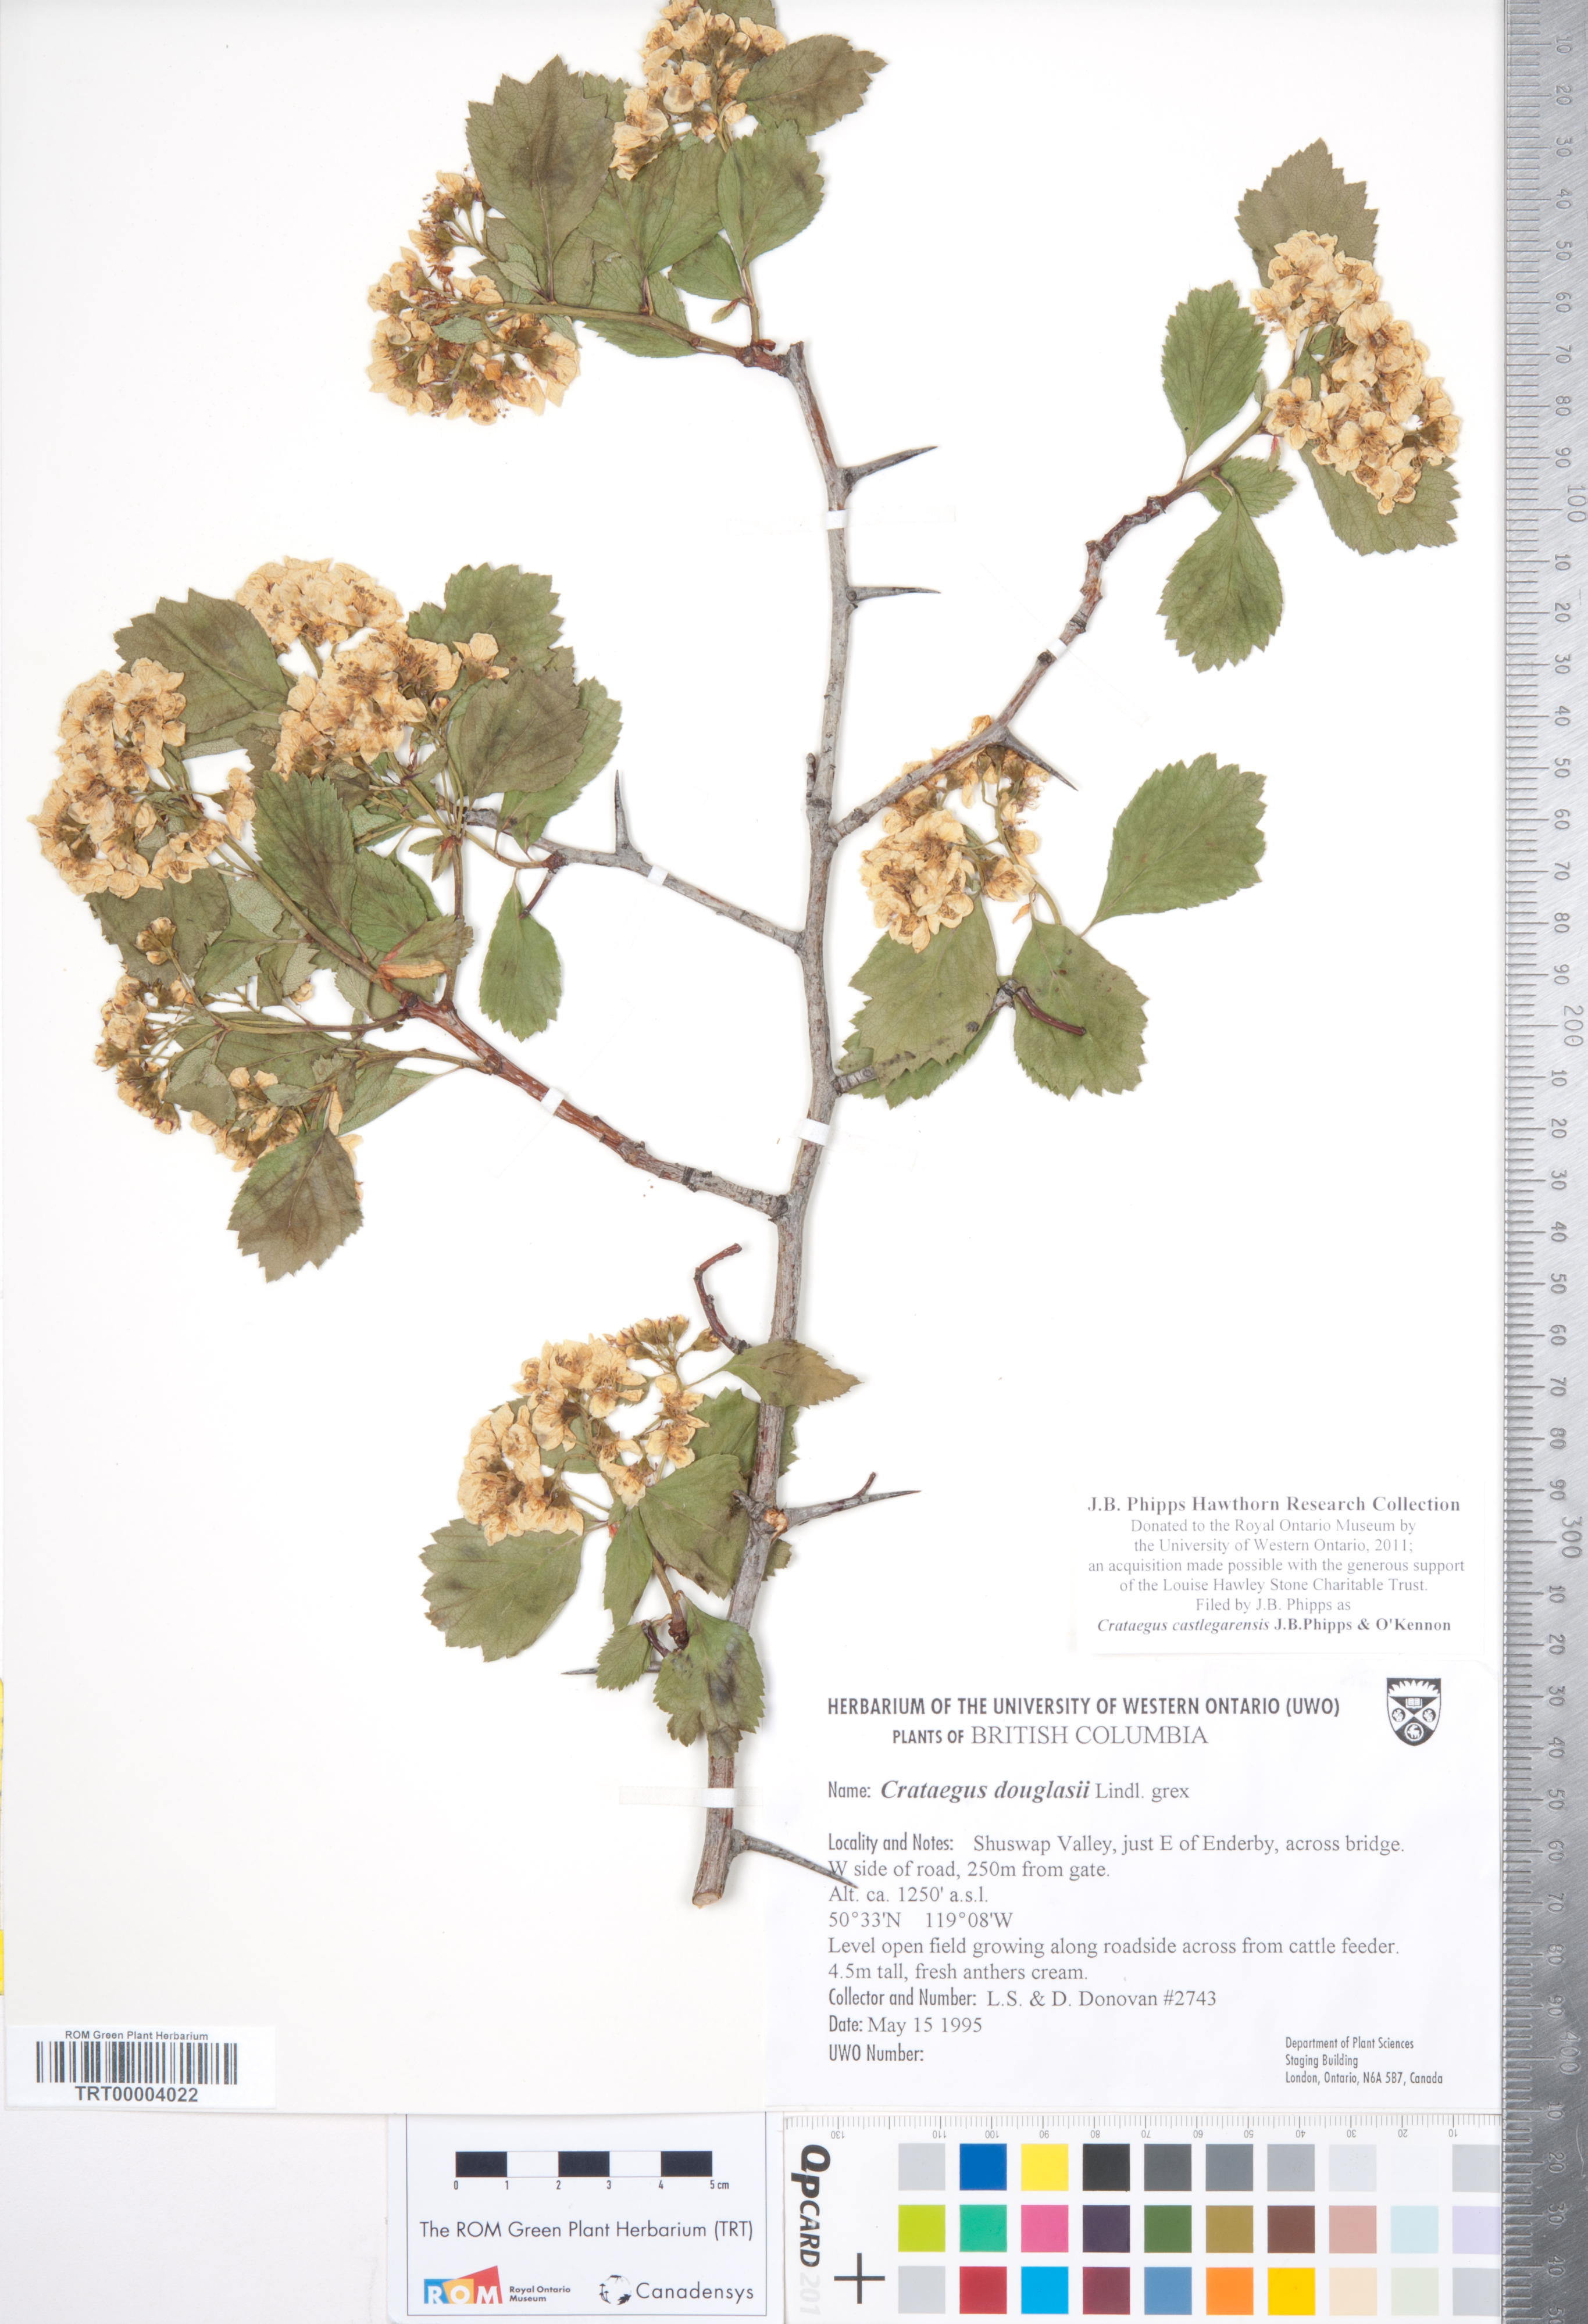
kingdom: Plantae
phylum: Tracheophyta
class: Magnoliopsida
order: Rosales
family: Rosaceae
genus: Crataegus
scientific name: Crataegus castlegarensis
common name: Castlegar hawthorn
